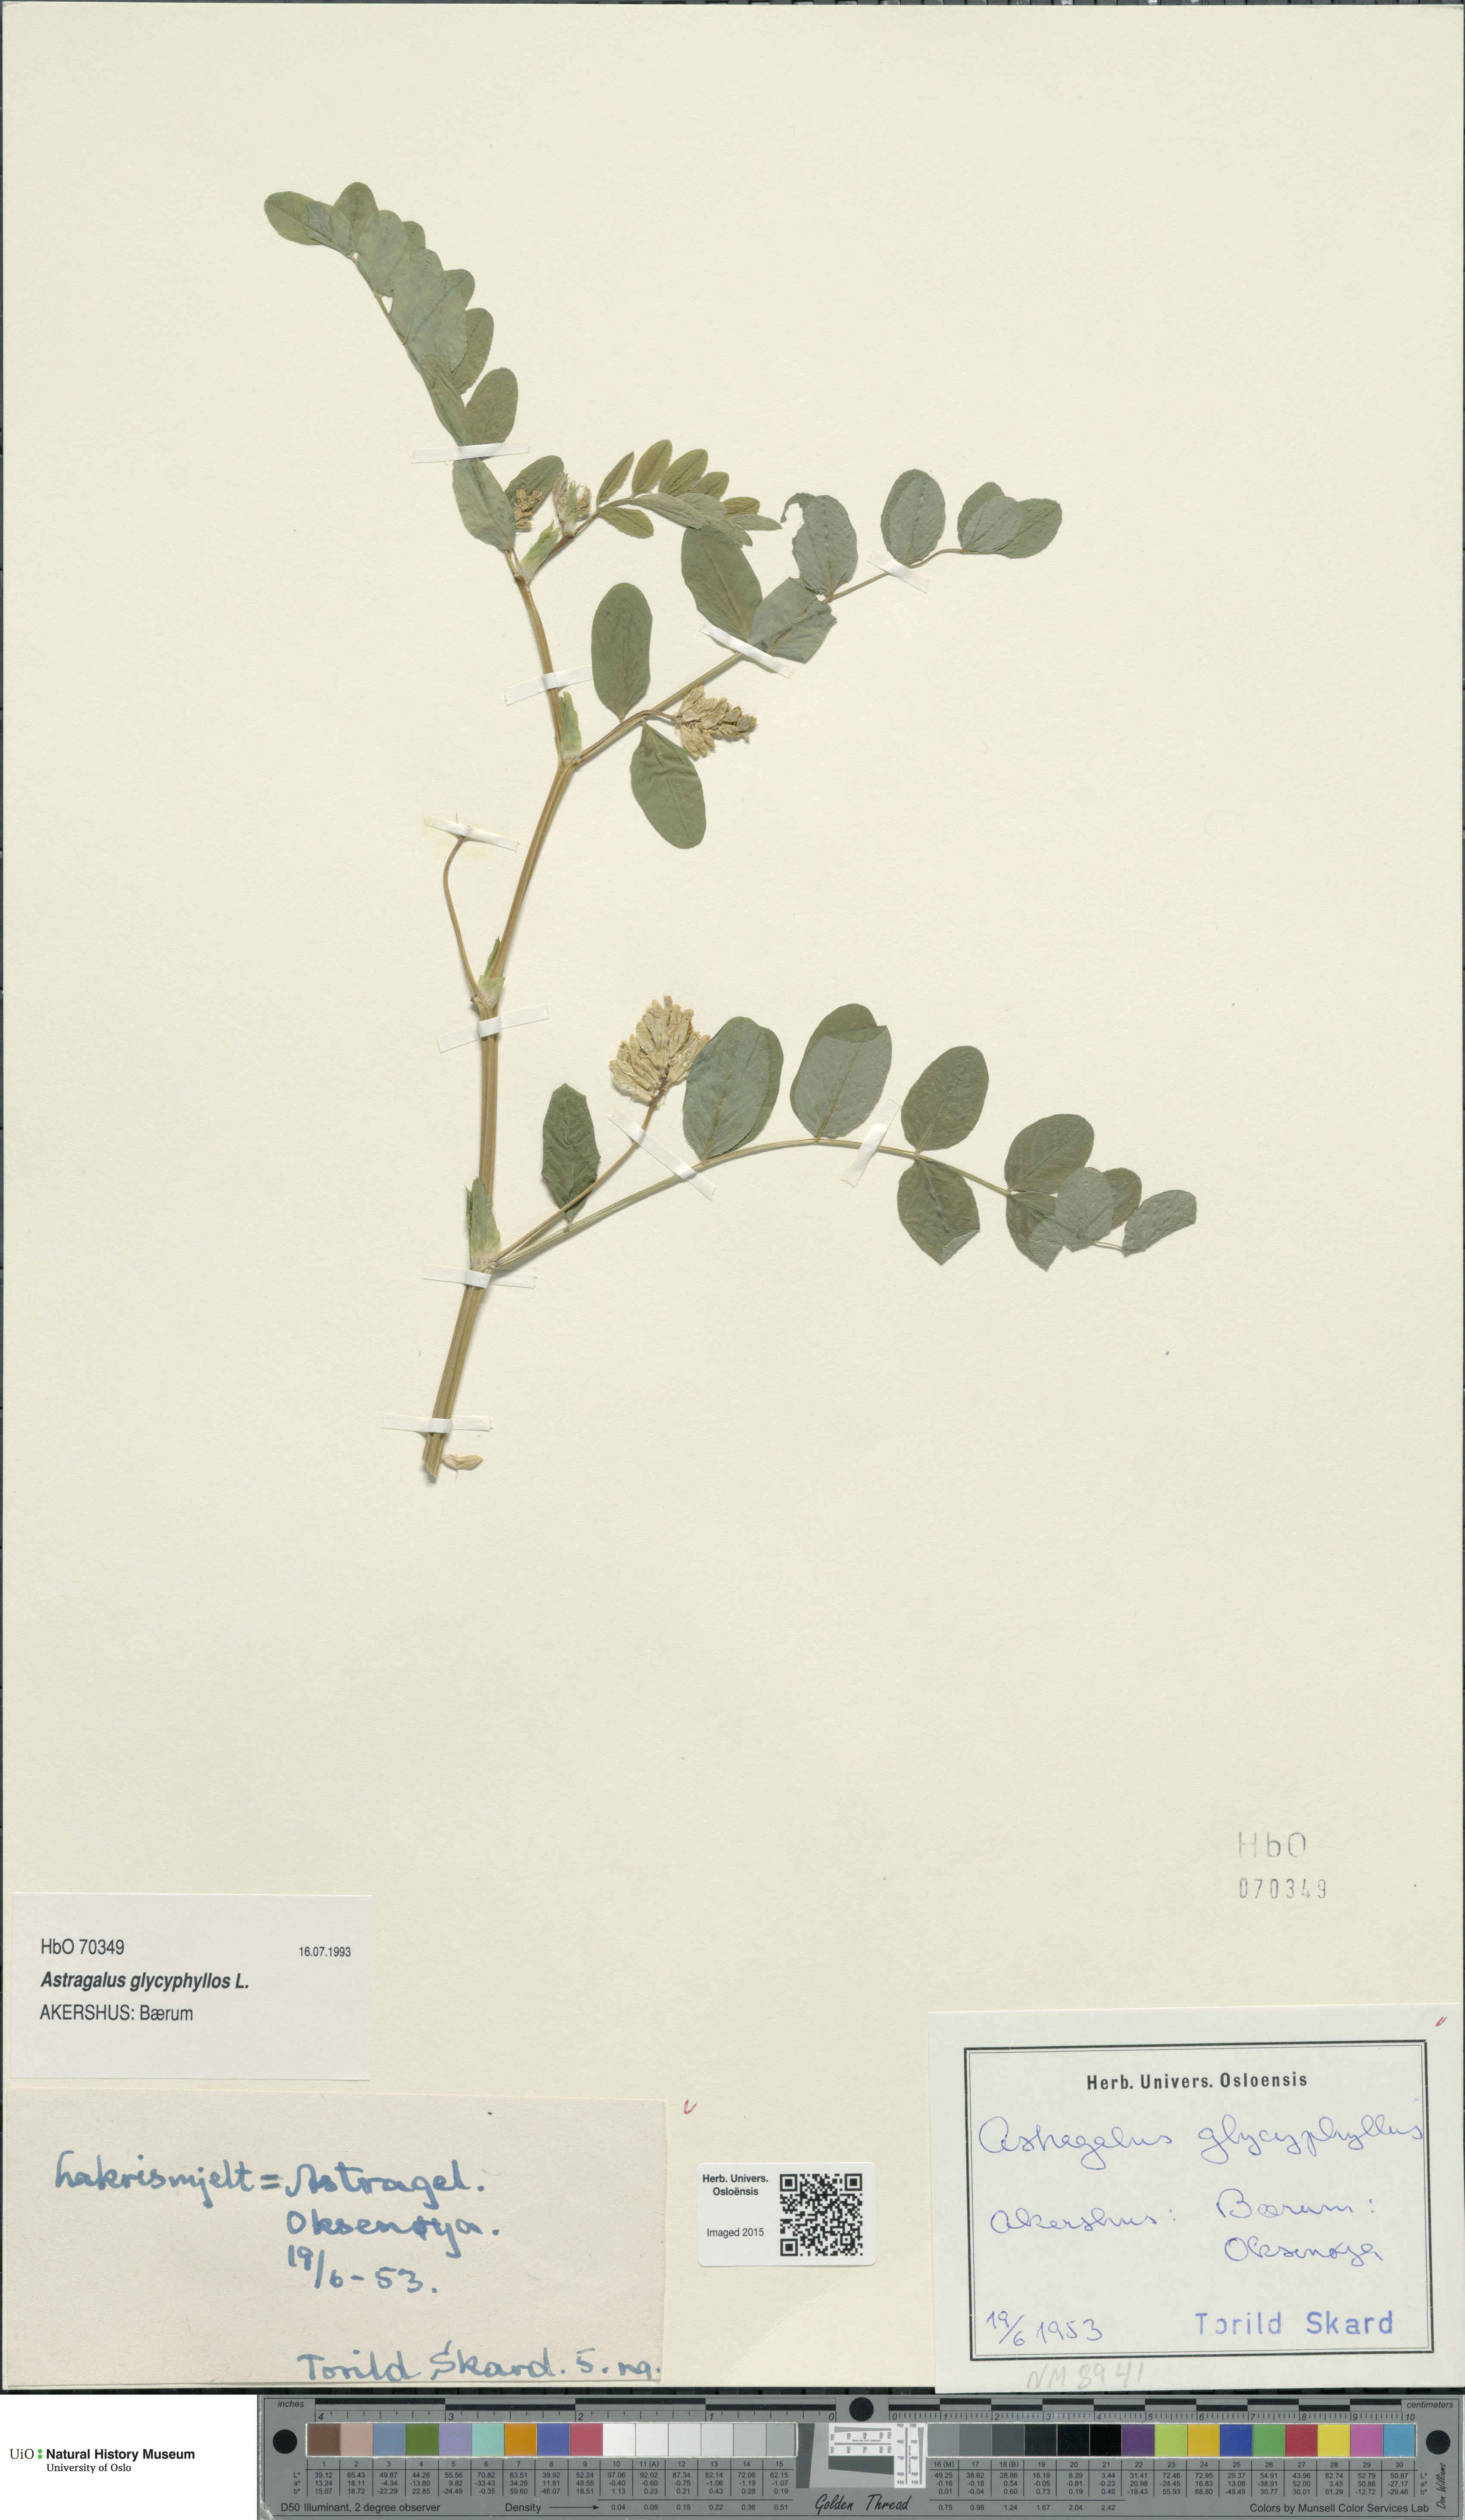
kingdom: Plantae
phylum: Tracheophyta
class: Magnoliopsida
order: Fabales
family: Fabaceae
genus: Astragalus
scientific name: Astragalus glycyphyllos
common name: Wild liquorice
